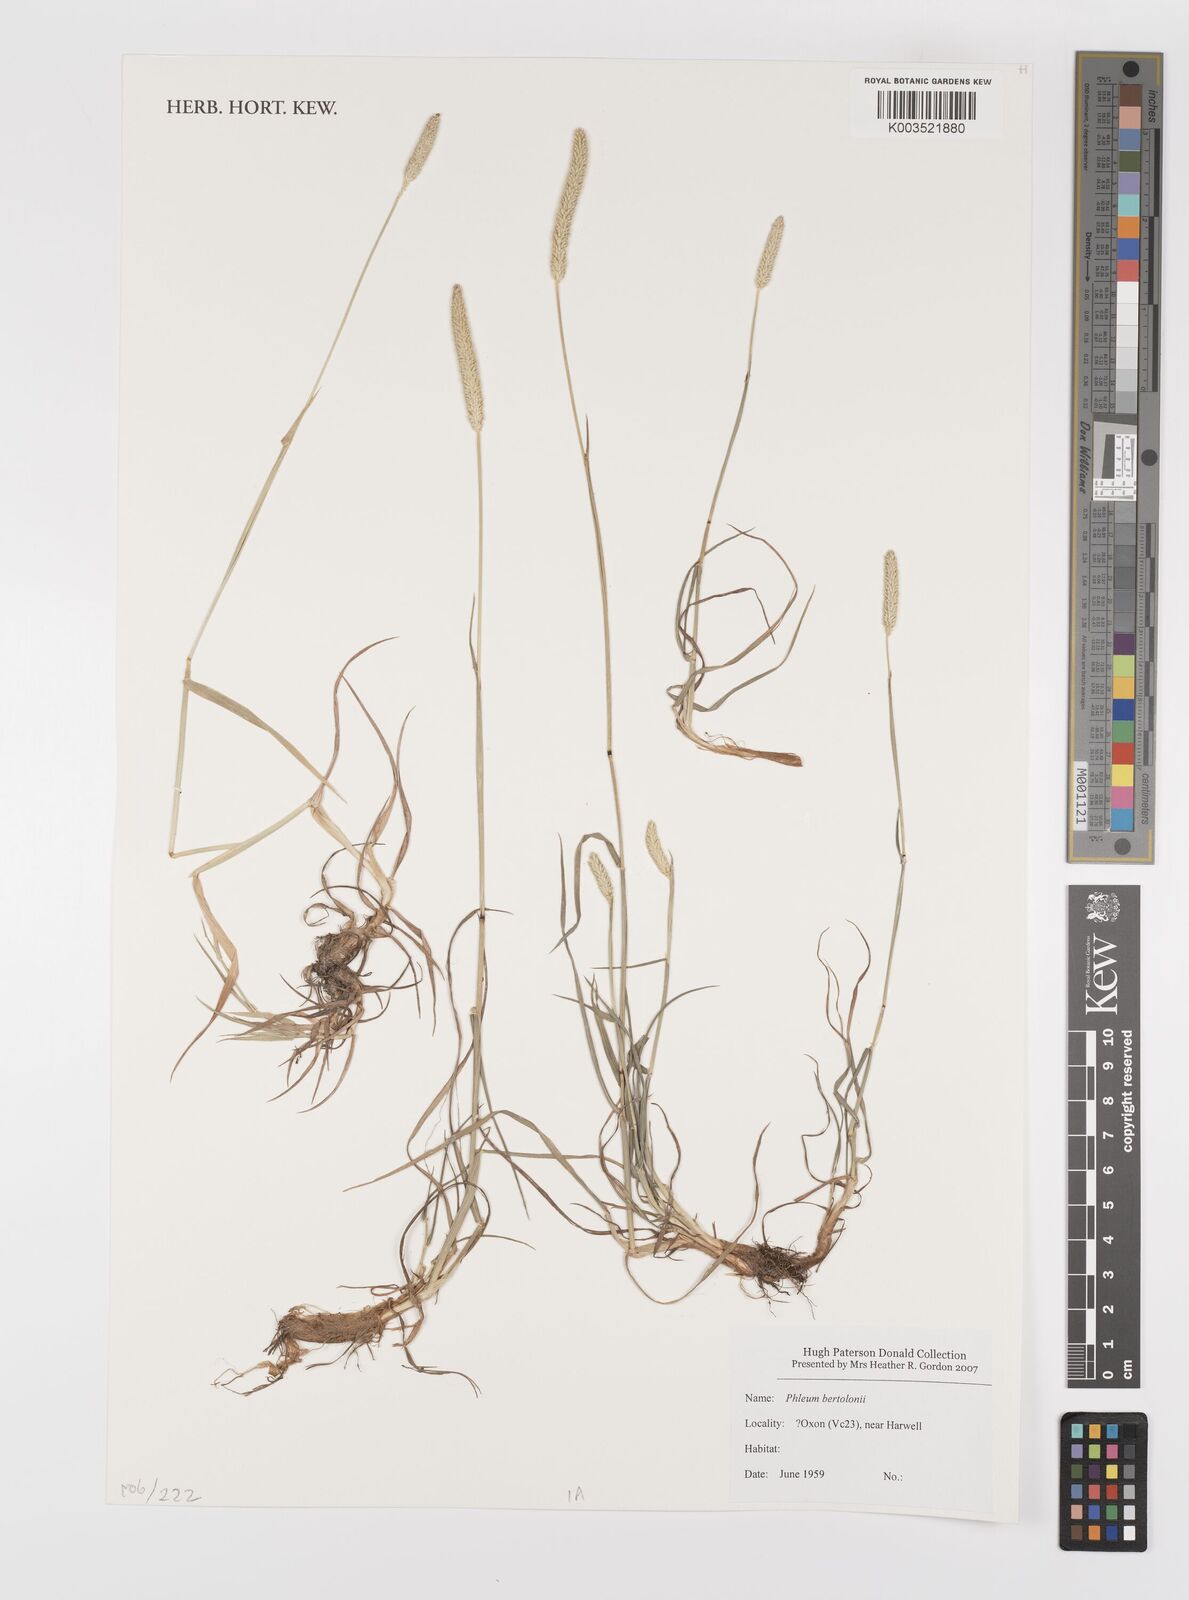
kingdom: Plantae
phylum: Tracheophyta
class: Liliopsida
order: Poales
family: Poaceae
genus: Phleum
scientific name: Phleum pratense
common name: Timothy grass
